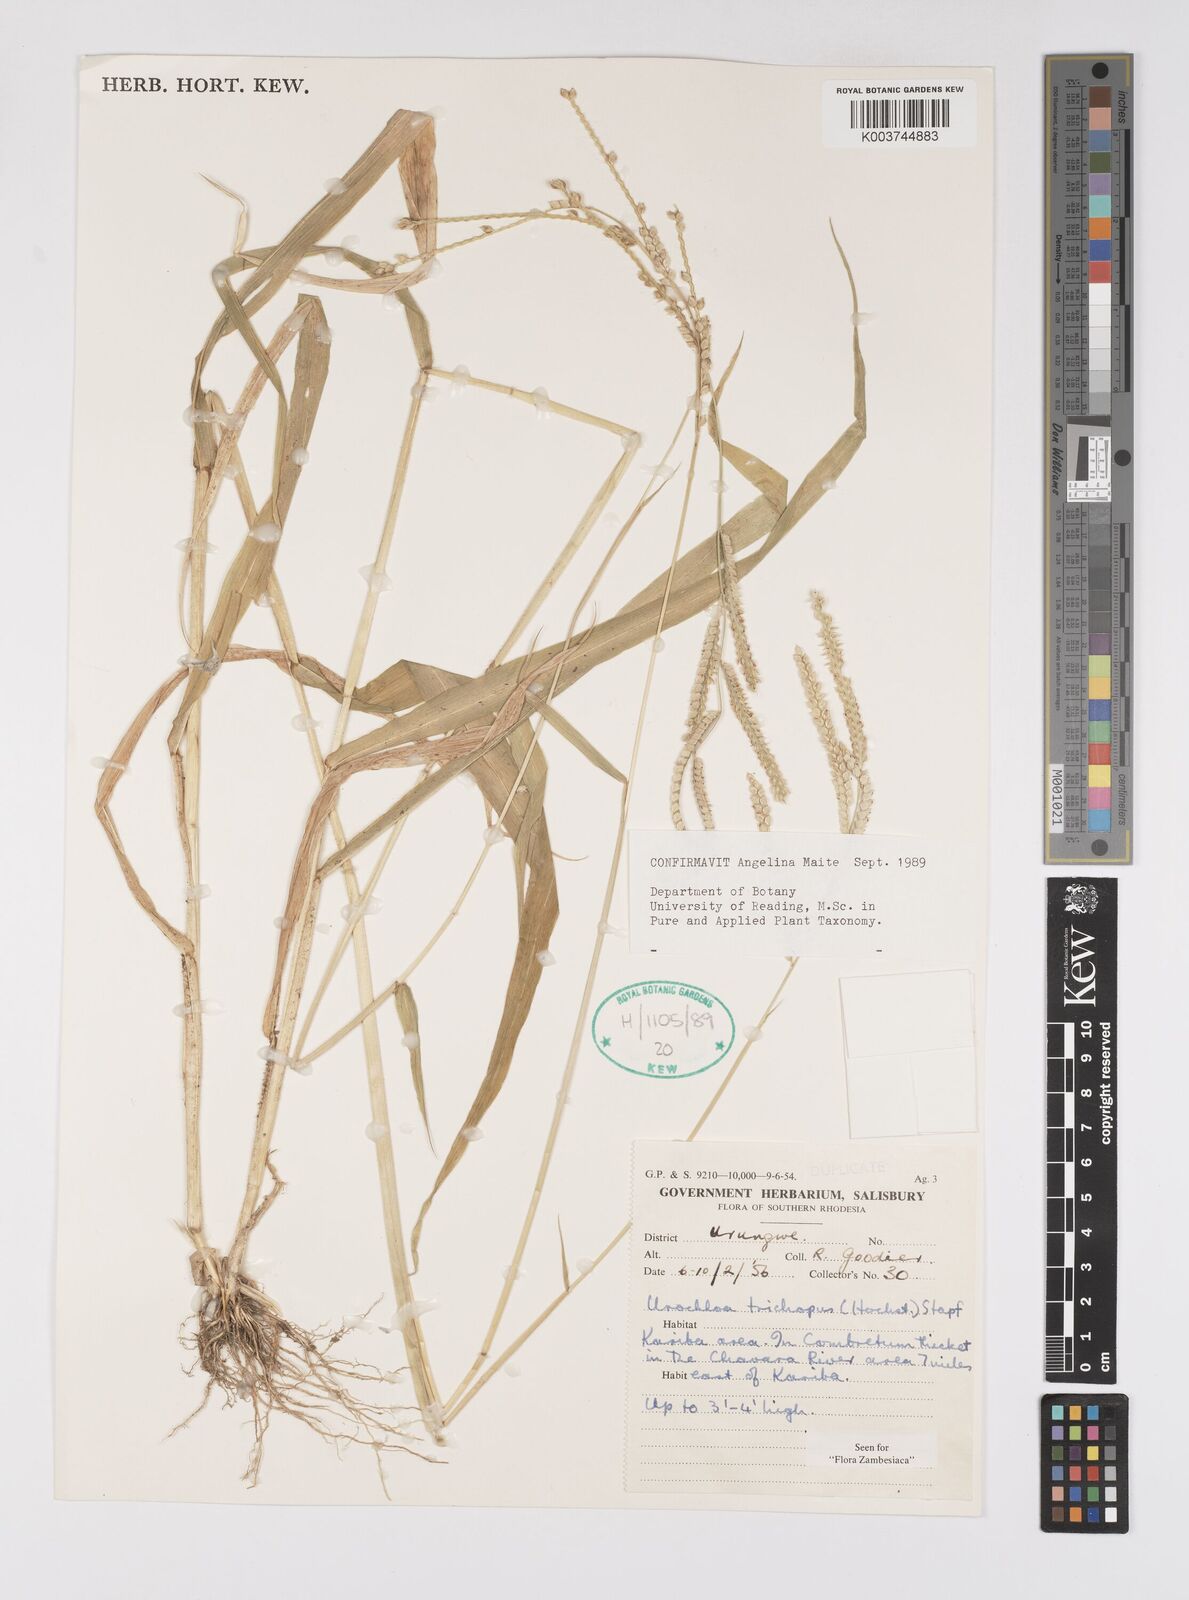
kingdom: Plantae
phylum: Tracheophyta
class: Liliopsida
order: Poales
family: Poaceae
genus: Urochloa
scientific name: Urochloa trichopus
